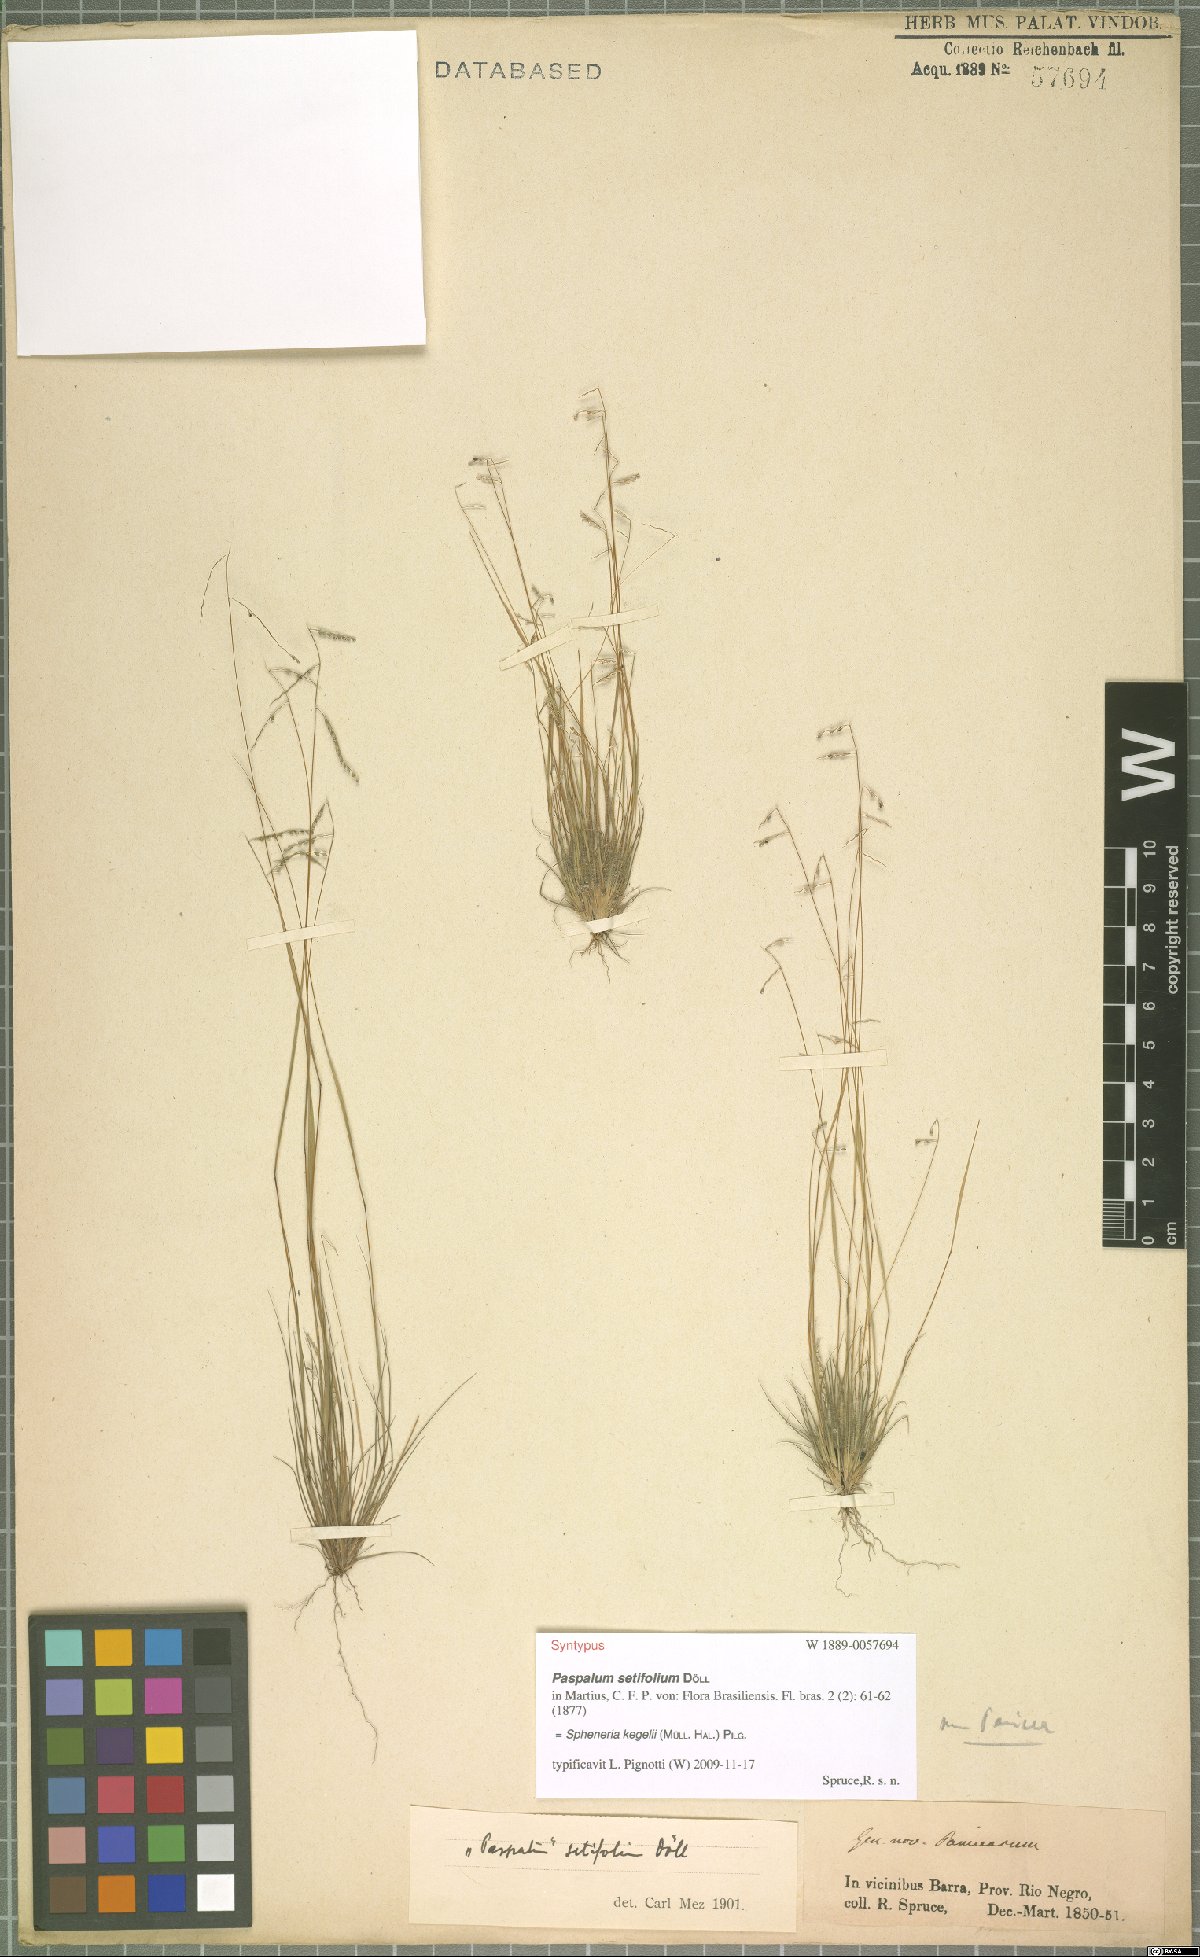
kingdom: Plantae
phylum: Tracheophyta
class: Liliopsida
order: Poales
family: Poaceae
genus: Spheneria
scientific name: Spheneria kegelii
